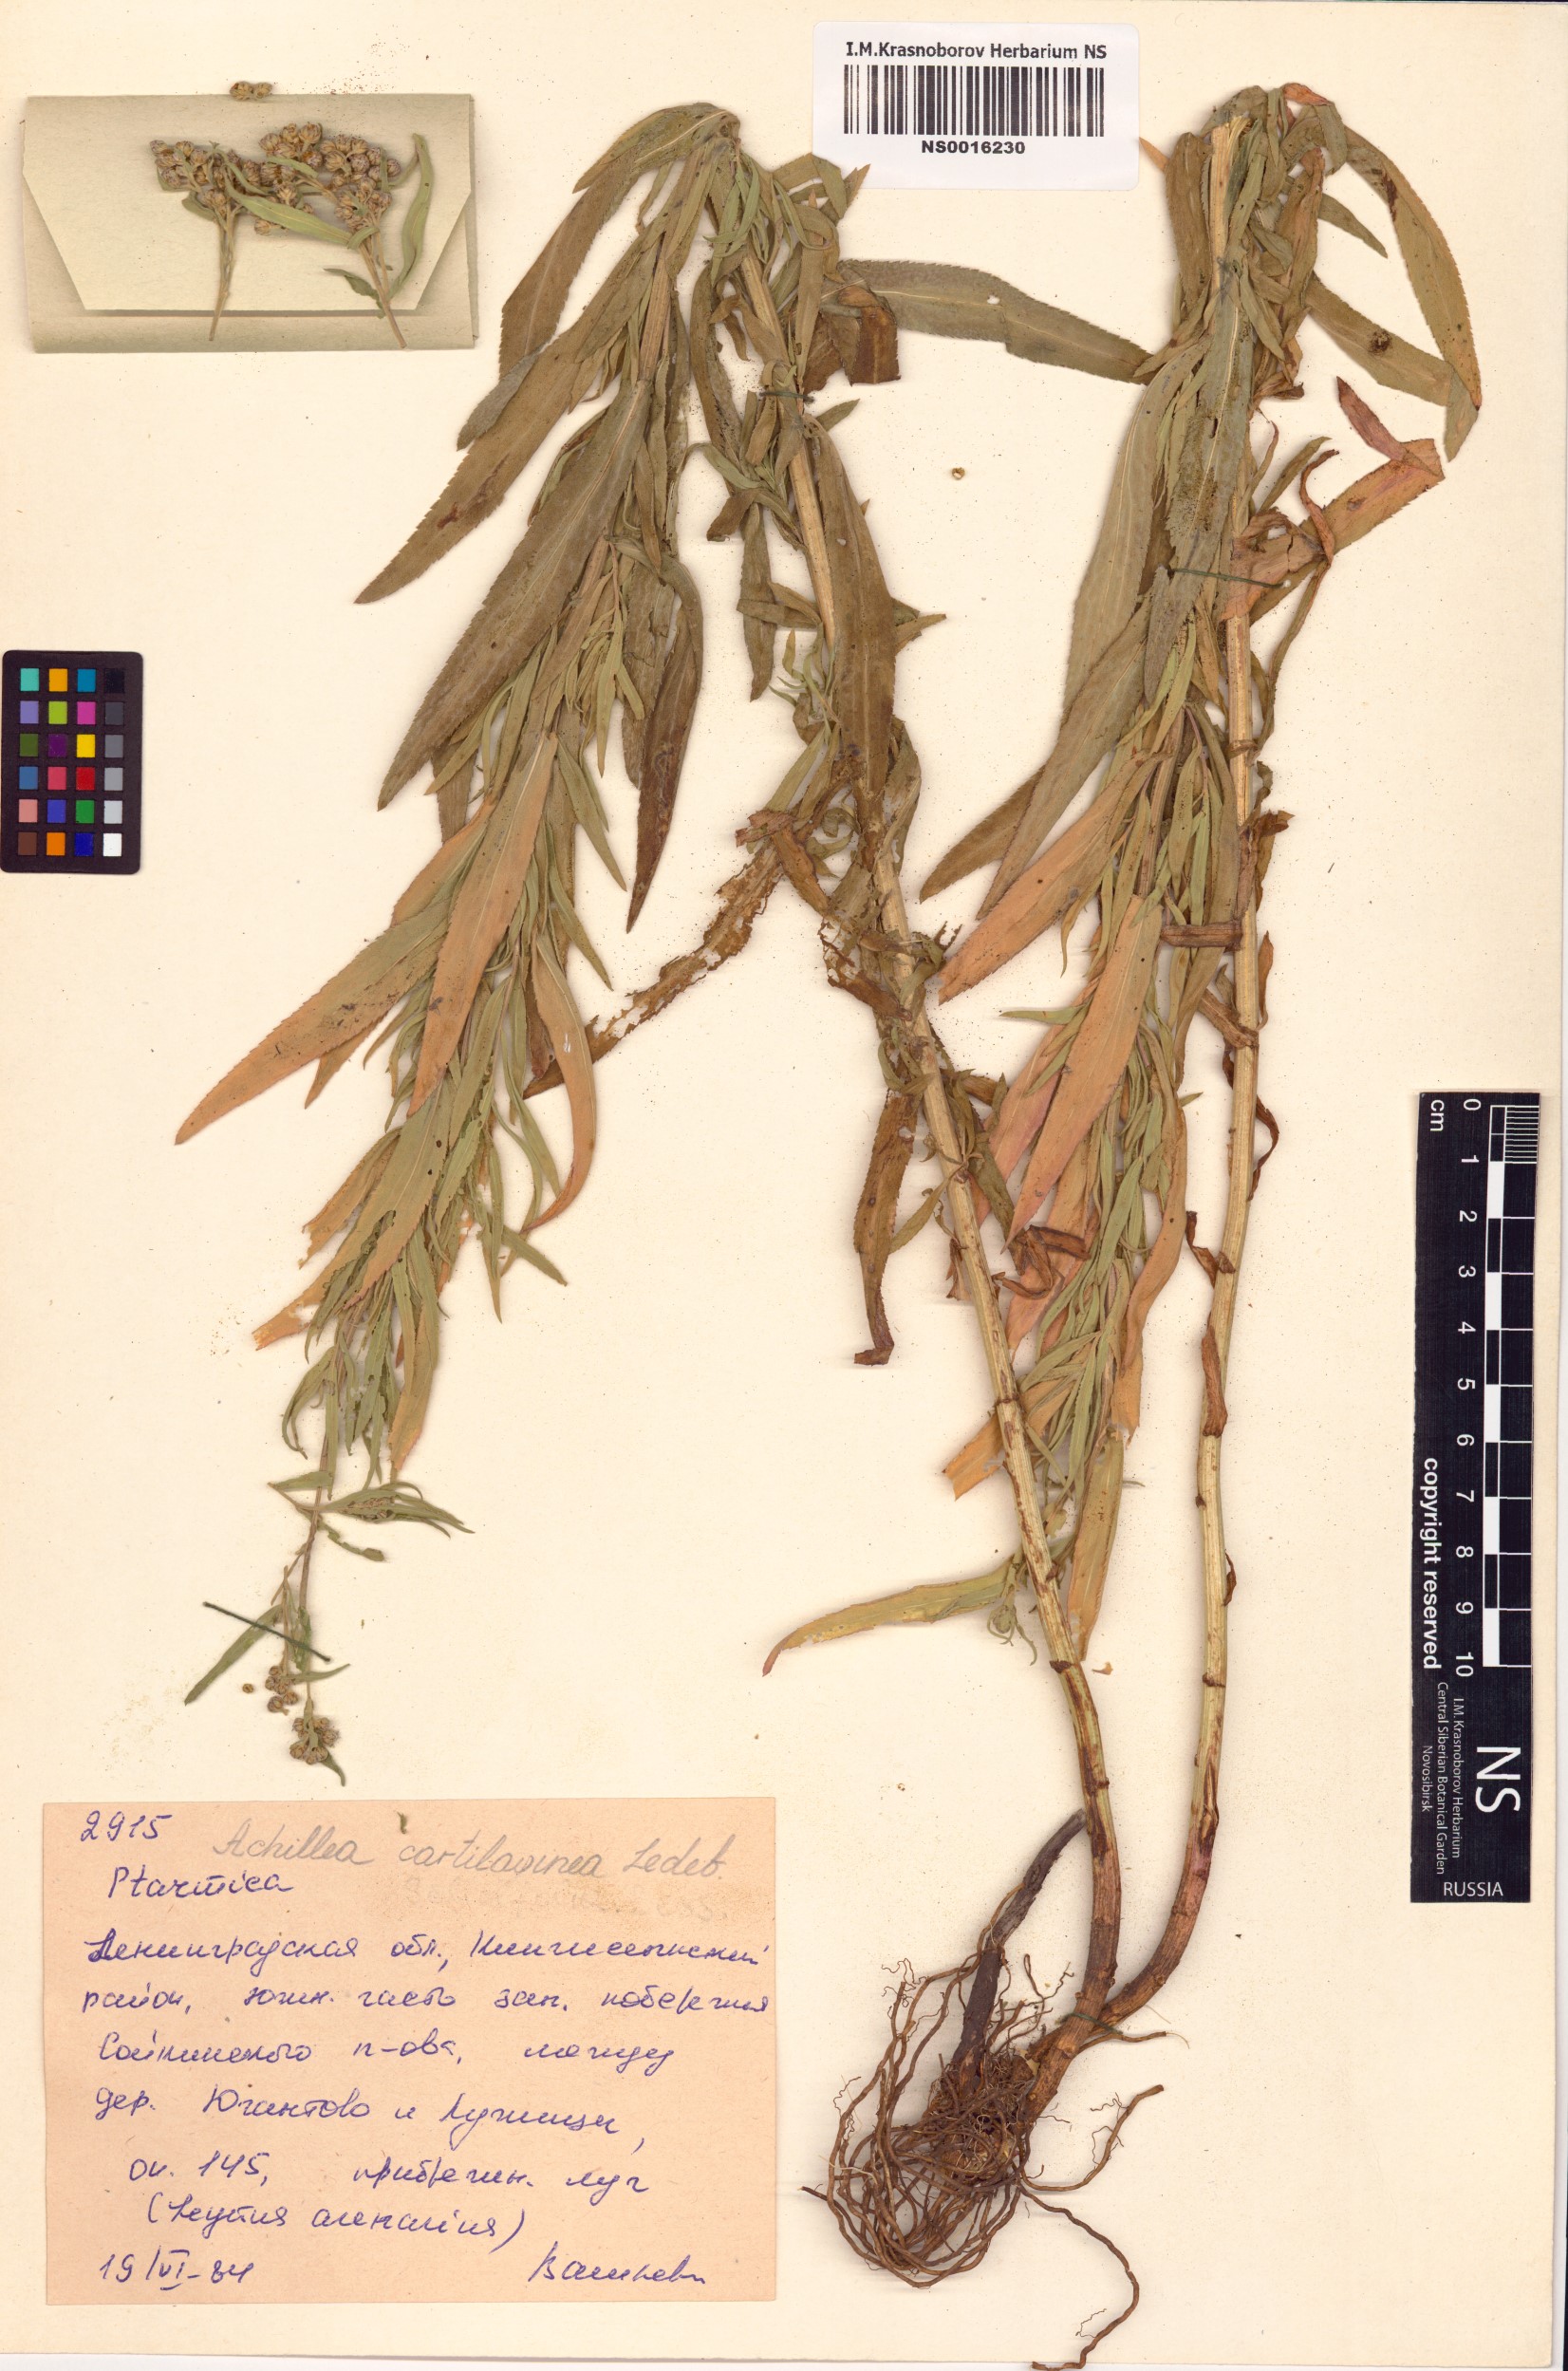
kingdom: Plantae
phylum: Tracheophyta
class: Magnoliopsida
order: Asterales
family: Asteraceae
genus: Achillea
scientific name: Achillea salicifolia
